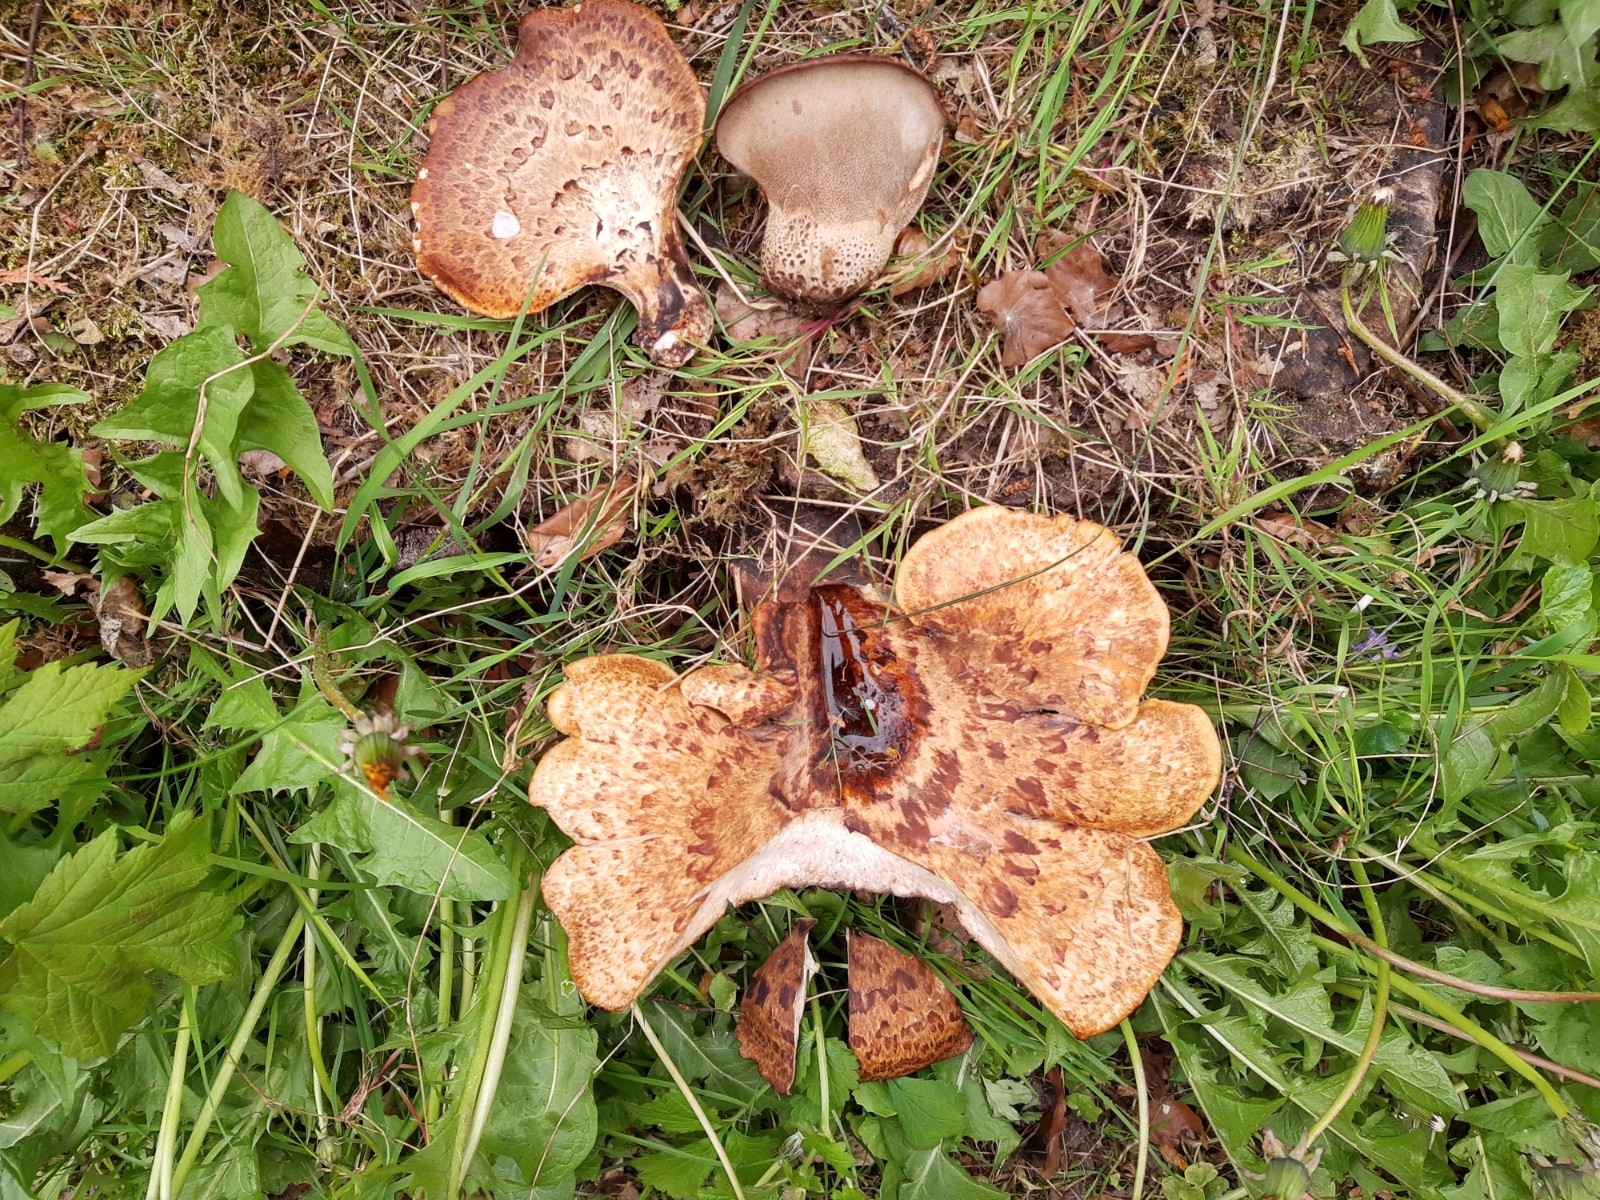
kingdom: Fungi
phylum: Basidiomycota
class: Agaricomycetes
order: Polyporales
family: Polyporaceae
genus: Cerioporus
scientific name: Cerioporus squamosus
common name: skællet stilkporesvamp
